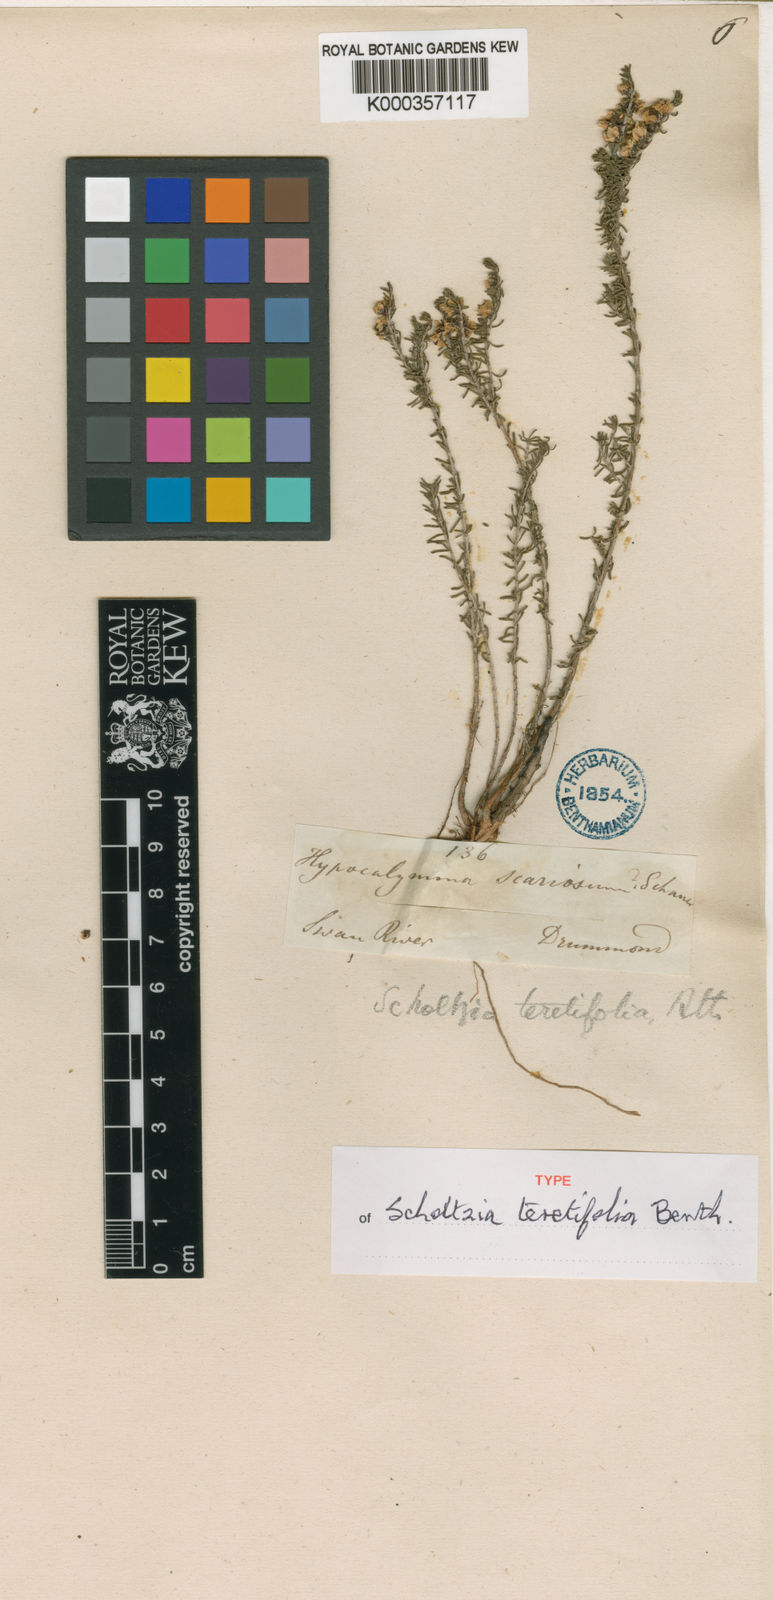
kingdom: Plantae
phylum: Tracheophyta
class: Magnoliopsida
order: Myrtales
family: Myrtaceae
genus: Scholtzia
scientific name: Scholtzia teretifolia
